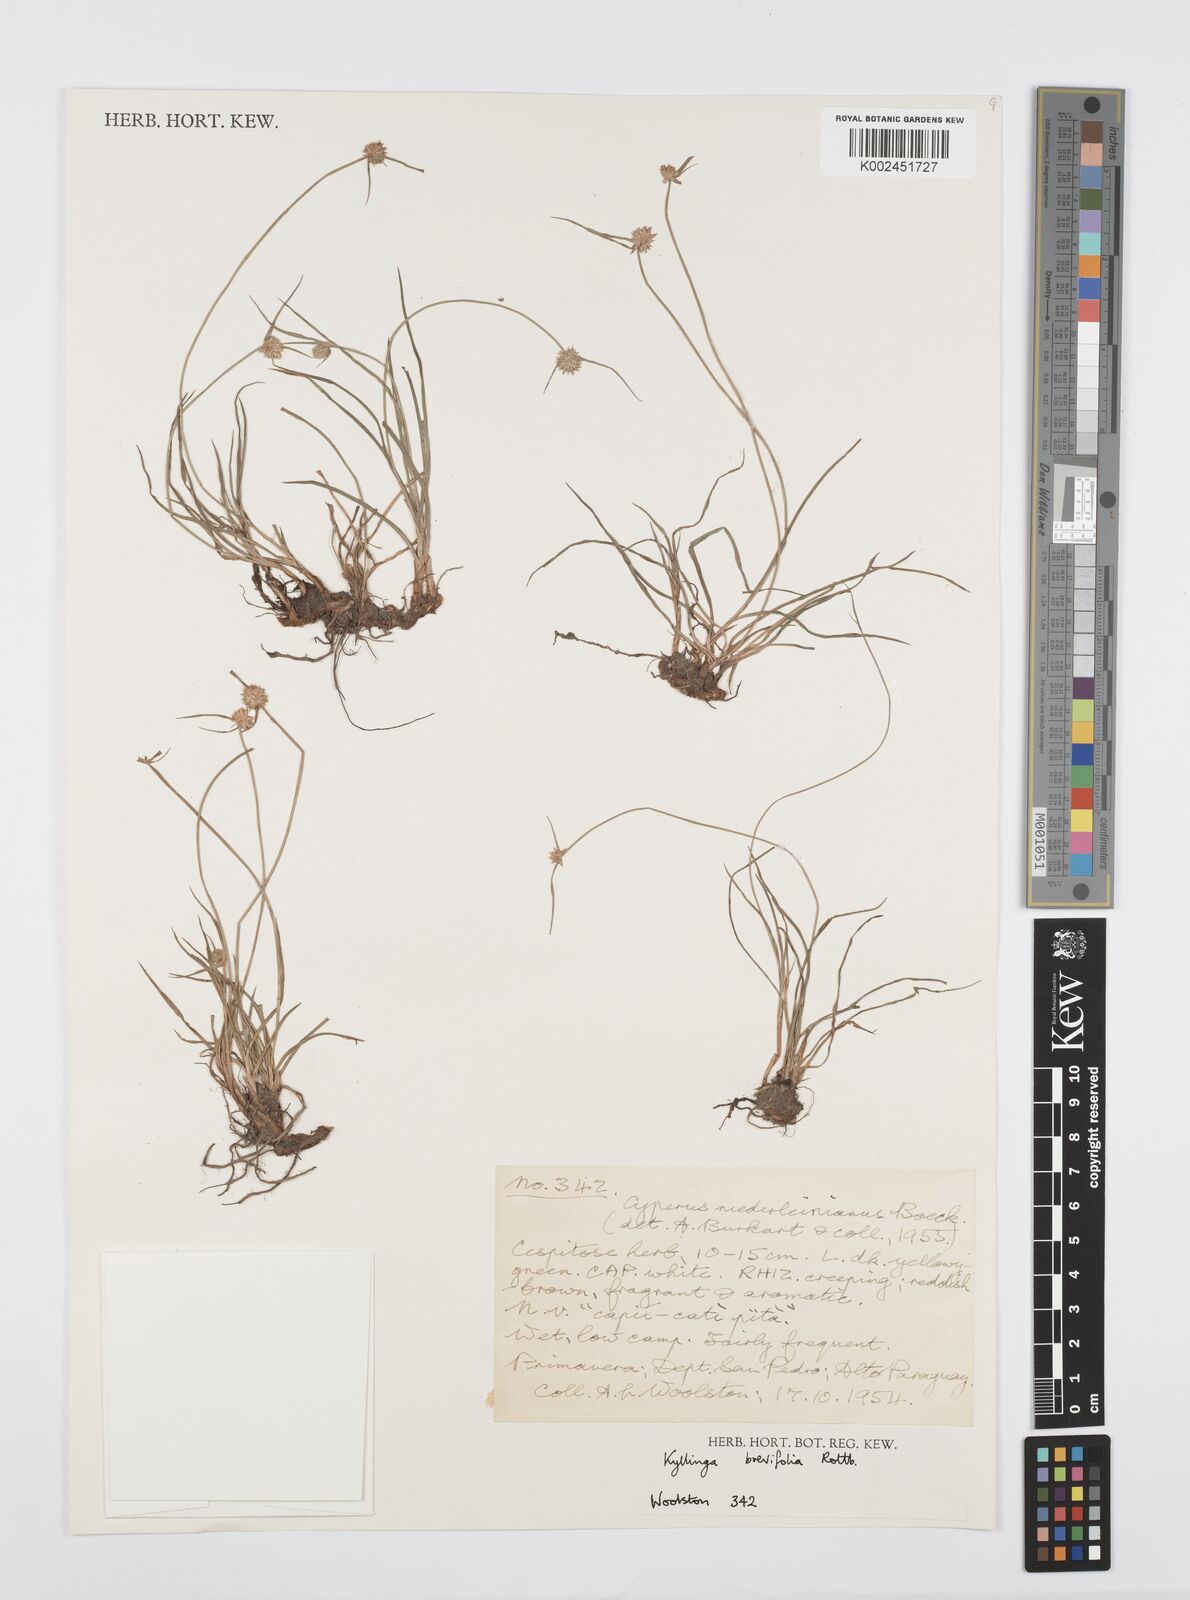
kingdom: Plantae
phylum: Tracheophyta
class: Liliopsida
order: Poales
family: Cyperaceae
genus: Cyperus
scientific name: Cyperus brevifolius
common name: Globe kyllinga
